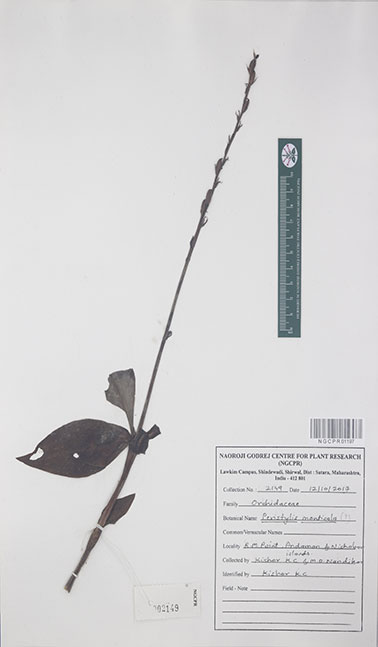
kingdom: Plantae
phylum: Tracheophyta
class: Liliopsida
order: Asparagales
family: Orchidaceae
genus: Peristylus
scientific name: Peristylus monticola
